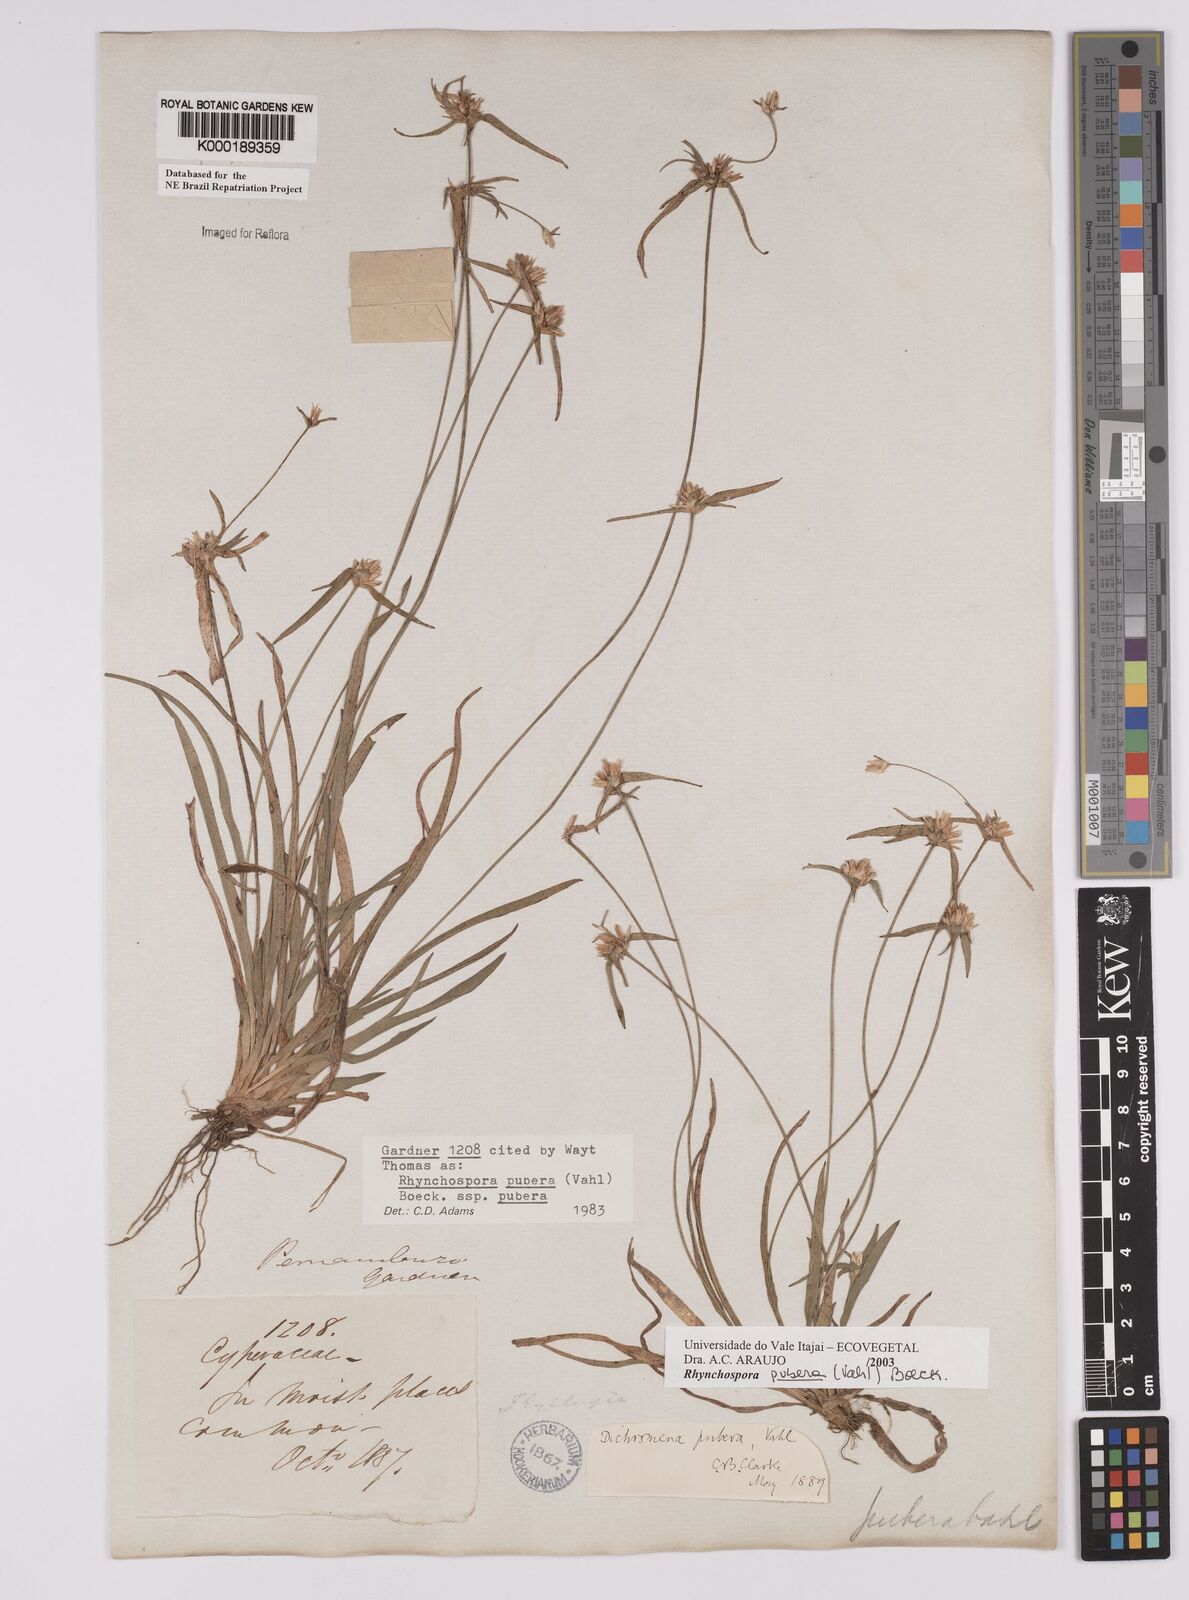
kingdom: Plantae
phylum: Tracheophyta
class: Liliopsida
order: Poales
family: Cyperaceae
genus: Rhynchospora
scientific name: Rhynchospora pubera
